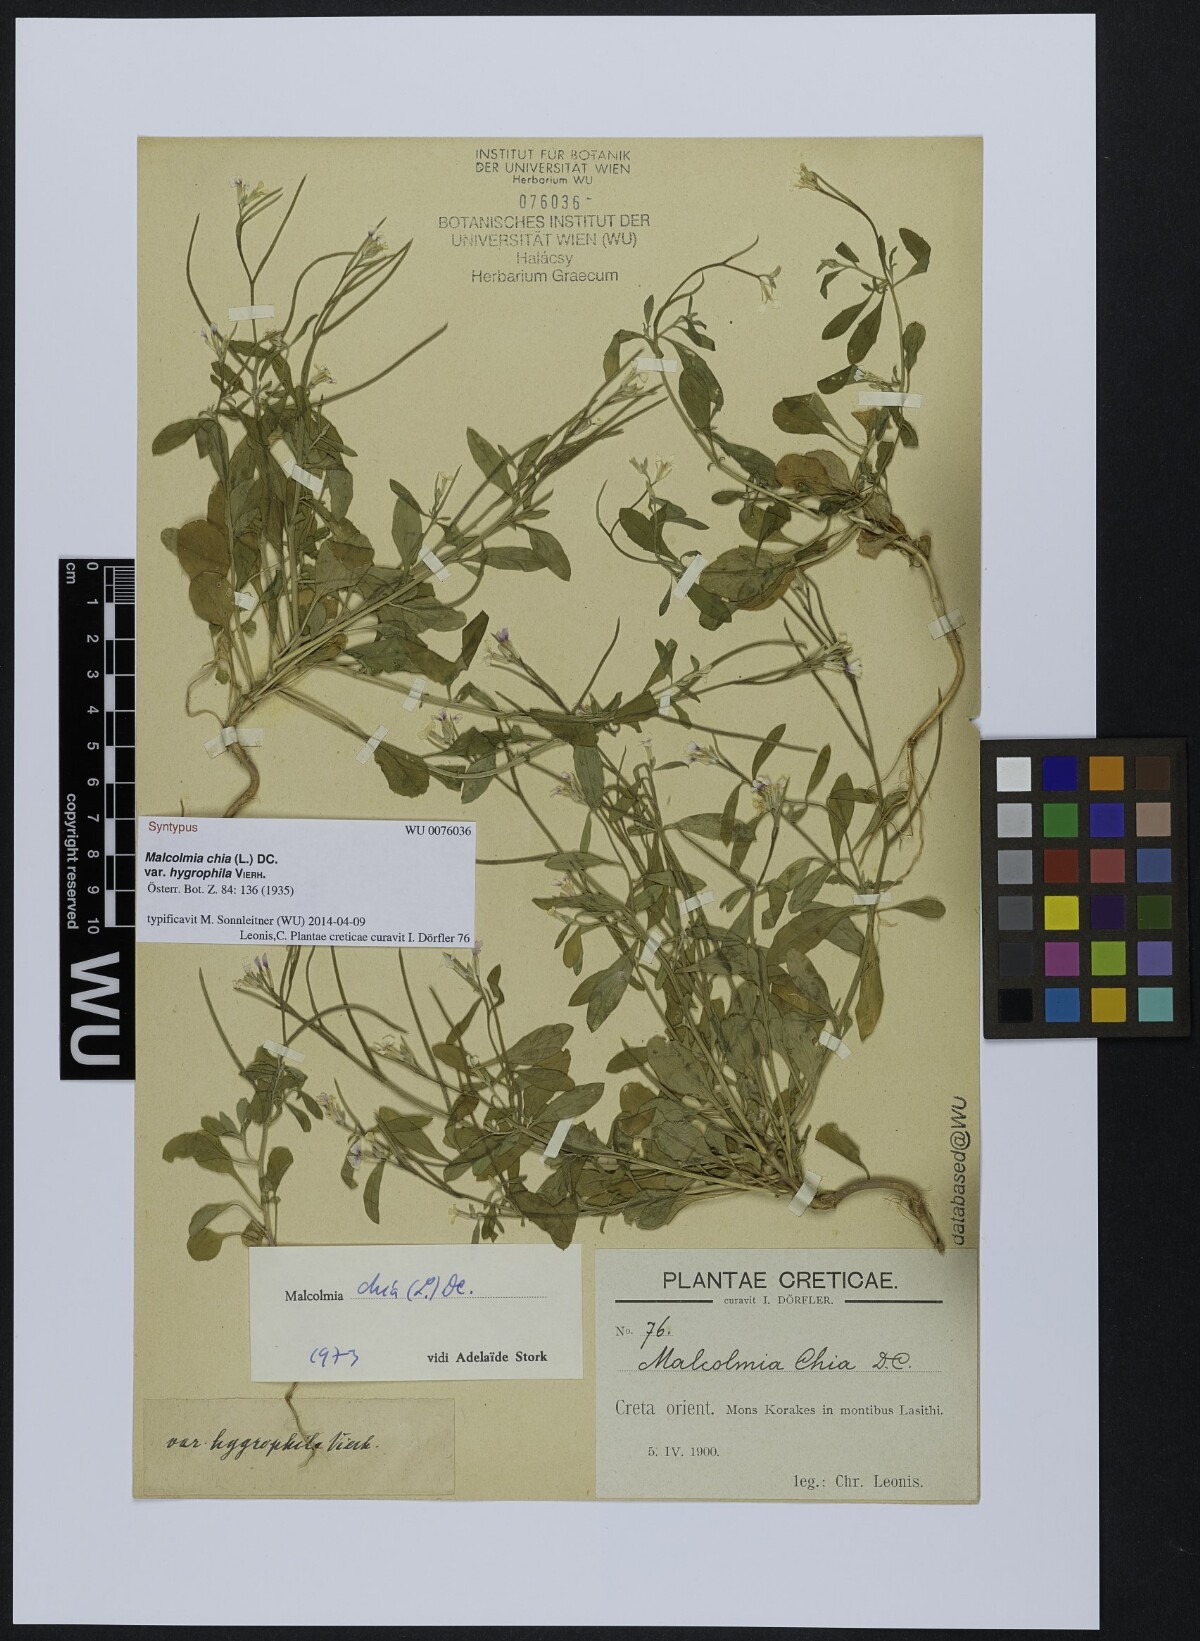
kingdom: Plantae
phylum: Tracheophyta
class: Magnoliopsida
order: Brassicales
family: Brassicaceae
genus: Malcolmia
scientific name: Malcolmia chia
